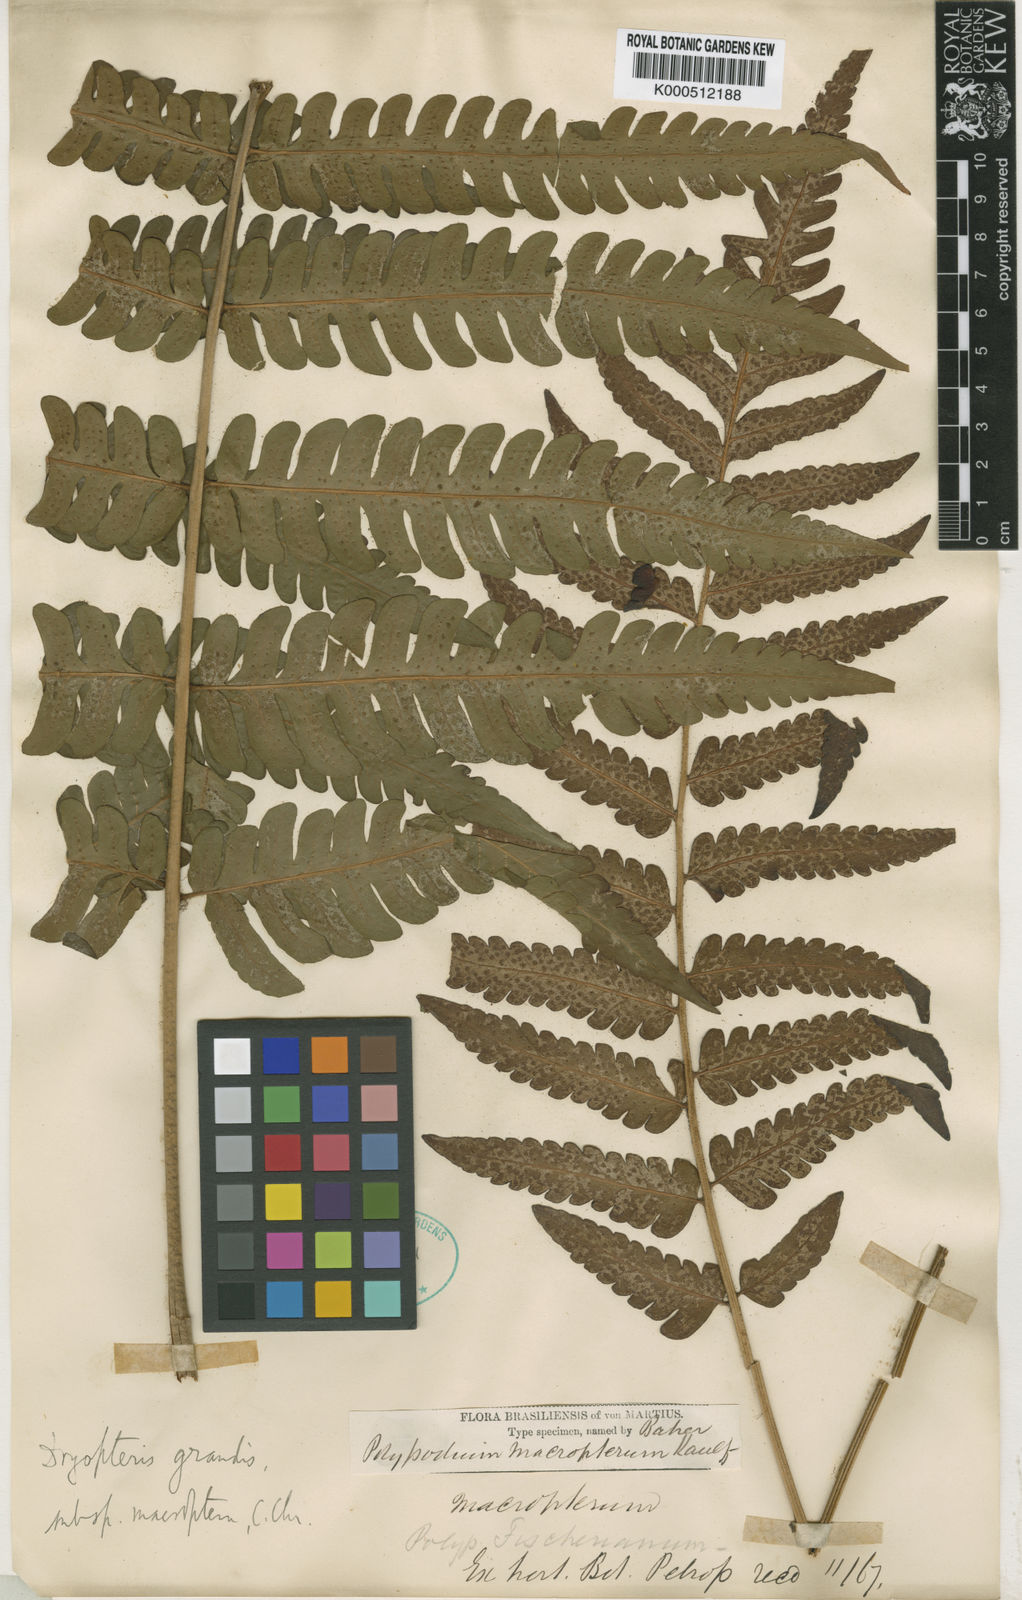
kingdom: Plantae
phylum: Tracheophyta
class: Polypodiopsida
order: Polypodiales
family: Dryopteridaceae
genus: Megalastrum
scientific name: Megalastrum grande
